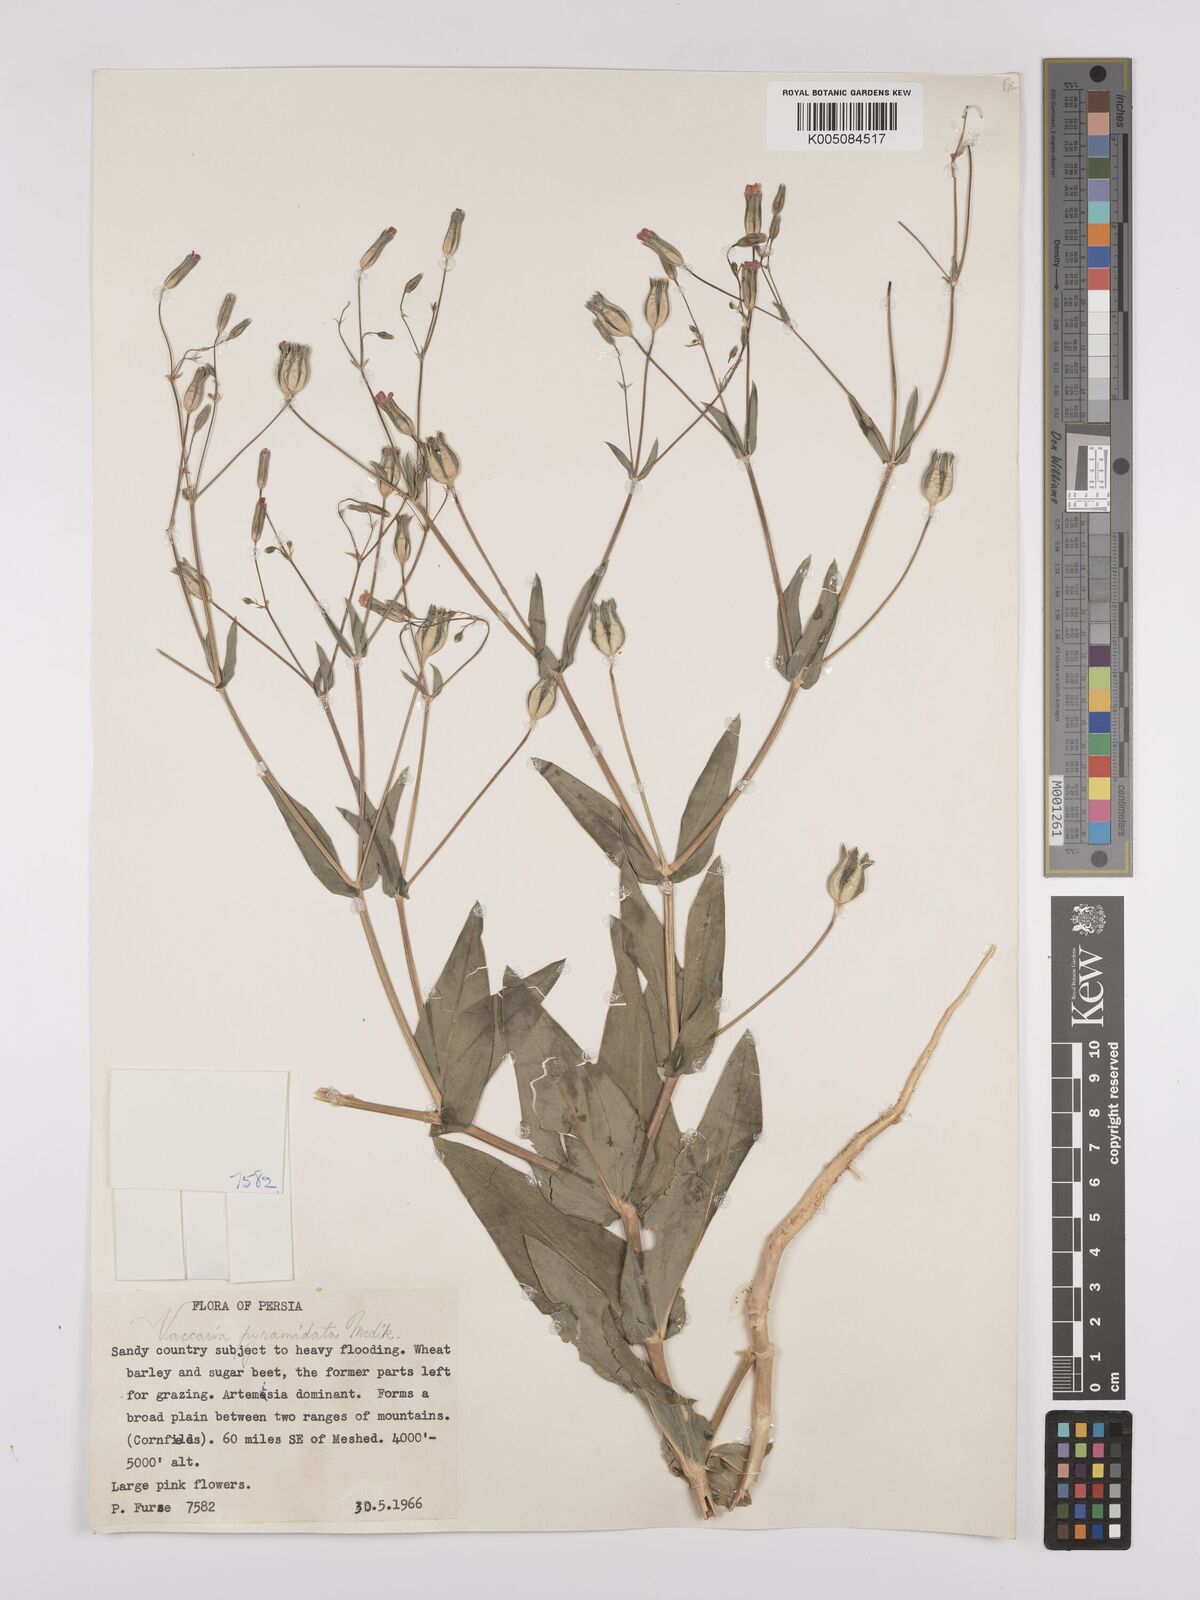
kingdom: Plantae
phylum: Tracheophyta
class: Magnoliopsida
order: Caryophyllales
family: Caryophyllaceae
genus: Gypsophila
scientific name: Gypsophila vaccaria
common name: Cow soapwort
